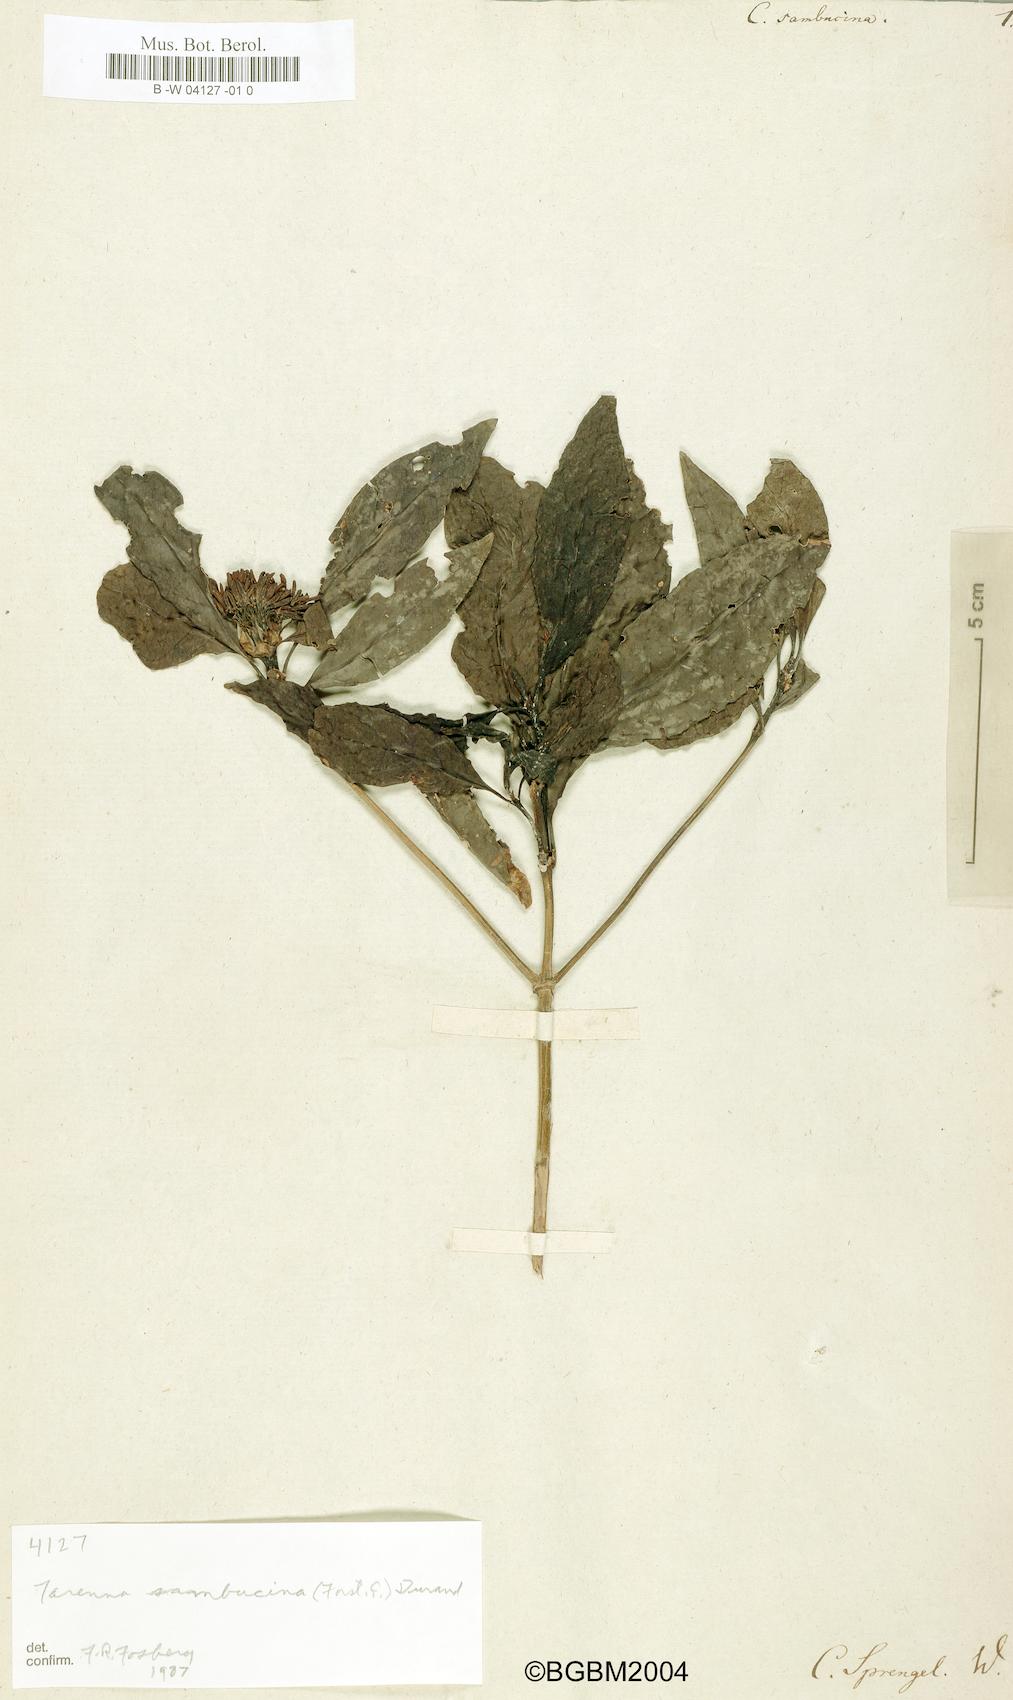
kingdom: Plantae
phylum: Tracheophyta
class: Magnoliopsida
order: Gentianales
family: Rubiaceae
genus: Tarenna
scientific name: Tarenna sambucina
